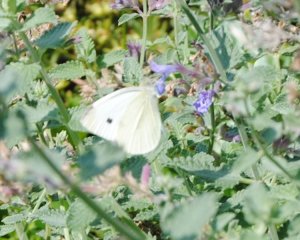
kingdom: Animalia
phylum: Arthropoda
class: Insecta
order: Lepidoptera
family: Pieridae
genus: Pieris
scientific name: Pieris rapae
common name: Cabbage White
